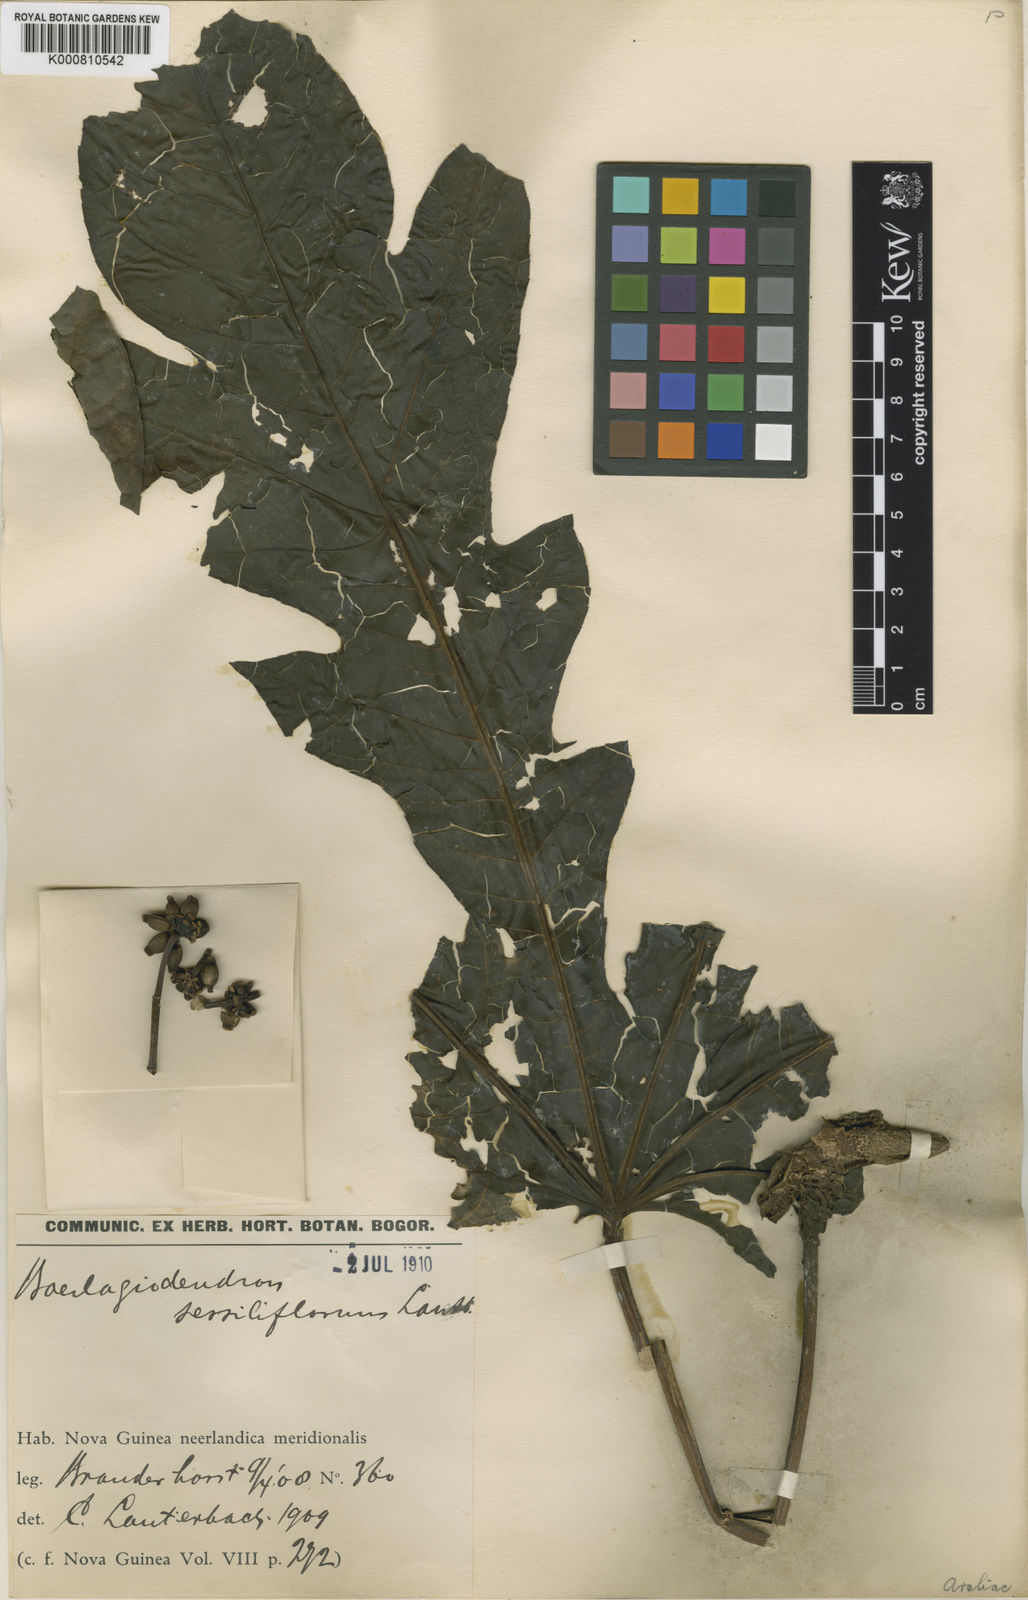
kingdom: Plantae
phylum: Tracheophyta
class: Magnoliopsida
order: Apiales
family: Araliaceae
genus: Osmoxylon
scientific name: Osmoxylon sessiliflorum
